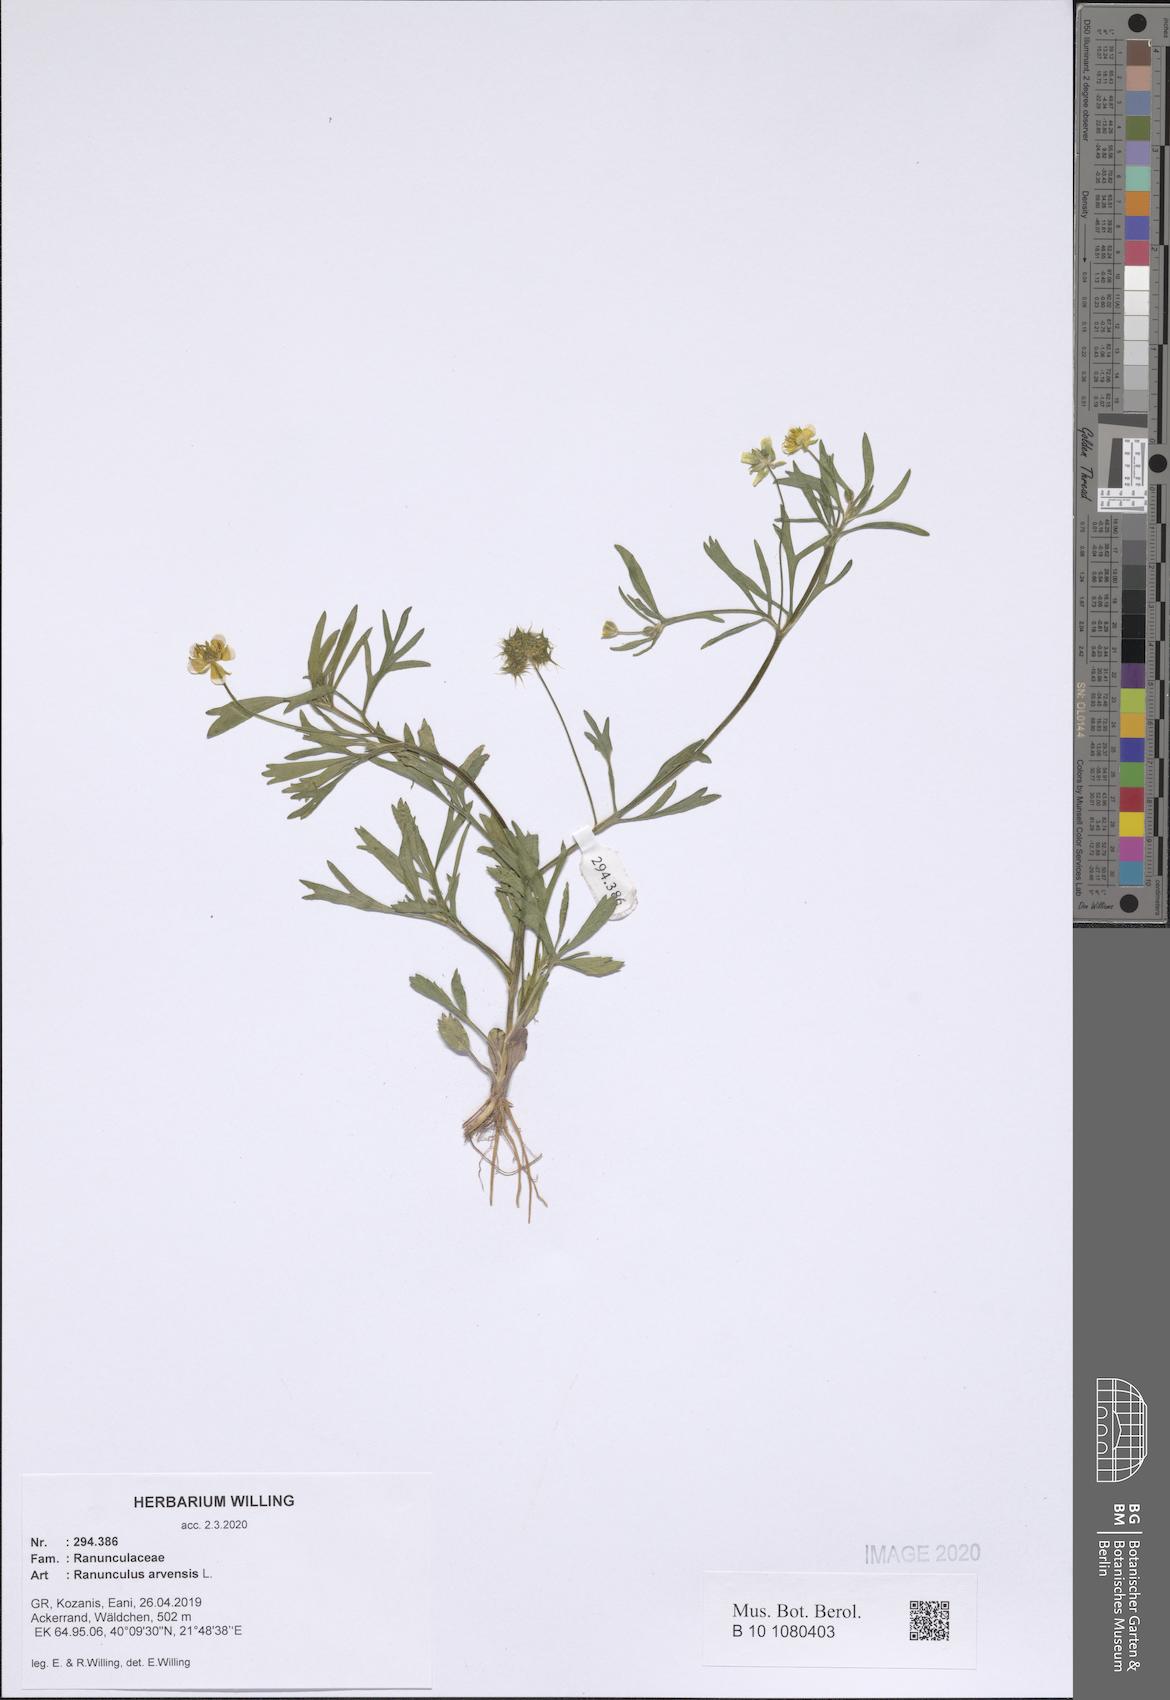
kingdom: Plantae
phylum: Tracheophyta
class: Magnoliopsida
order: Ranunculales
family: Ranunculaceae
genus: Ranunculus
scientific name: Ranunculus arvensis
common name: Corn buttercup
